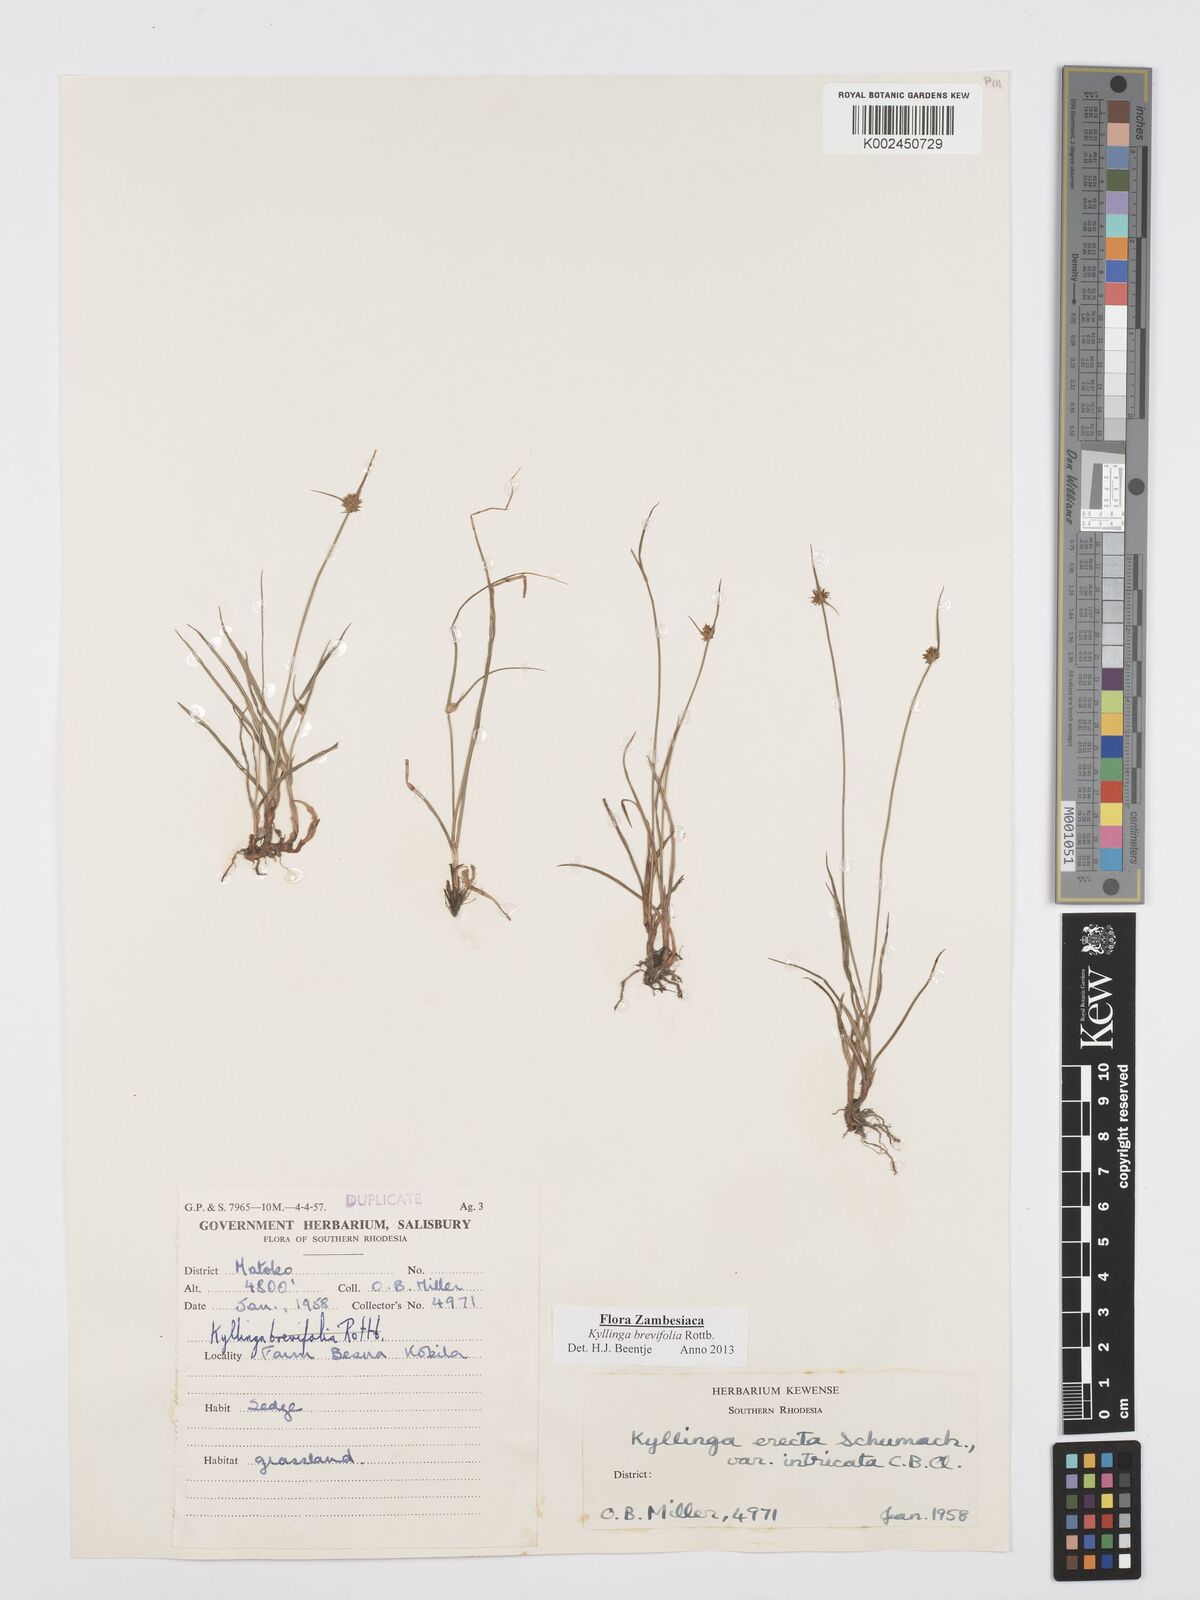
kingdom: Plantae
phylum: Tracheophyta
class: Liliopsida
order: Poales
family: Cyperaceae
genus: Cyperus
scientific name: Cyperus brevifolius
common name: Globe kyllinga
